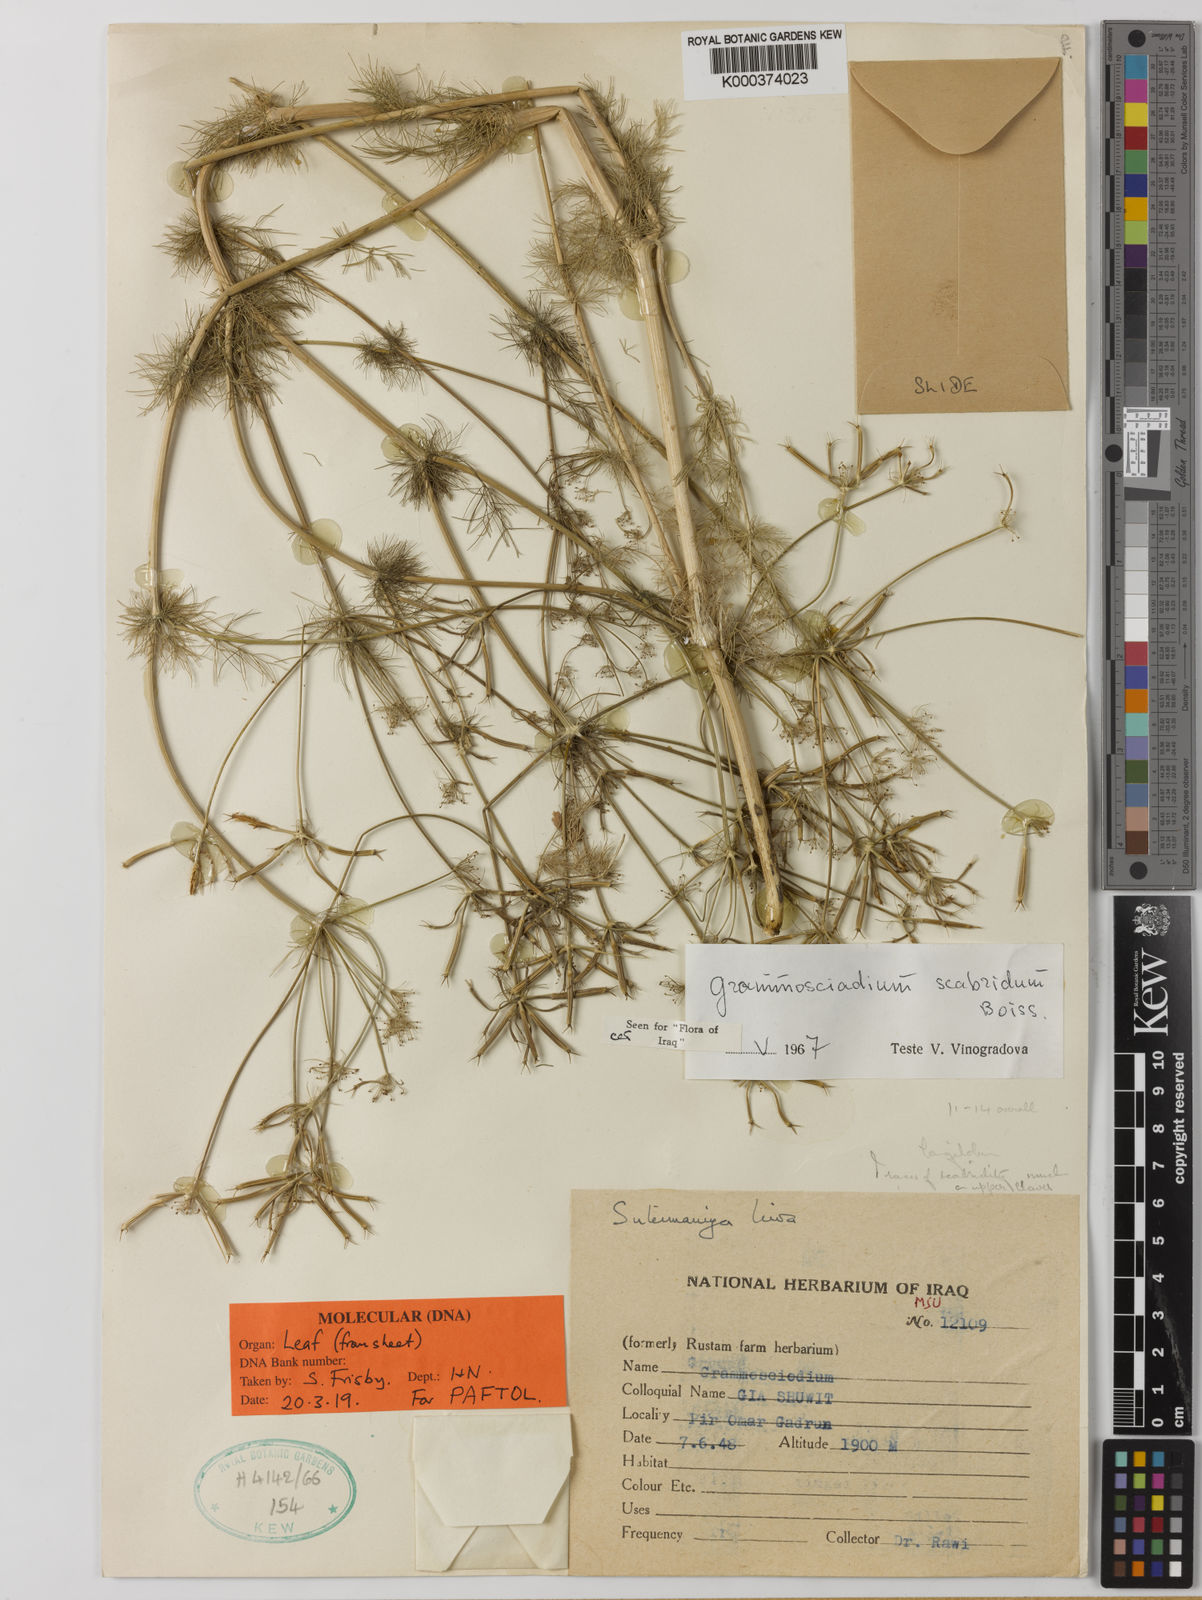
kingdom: Plantae
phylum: Tracheophyta
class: Magnoliopsida
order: Apiales
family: Apiaceae
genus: Grammosciadium
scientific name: Grammosciadium scabridum
